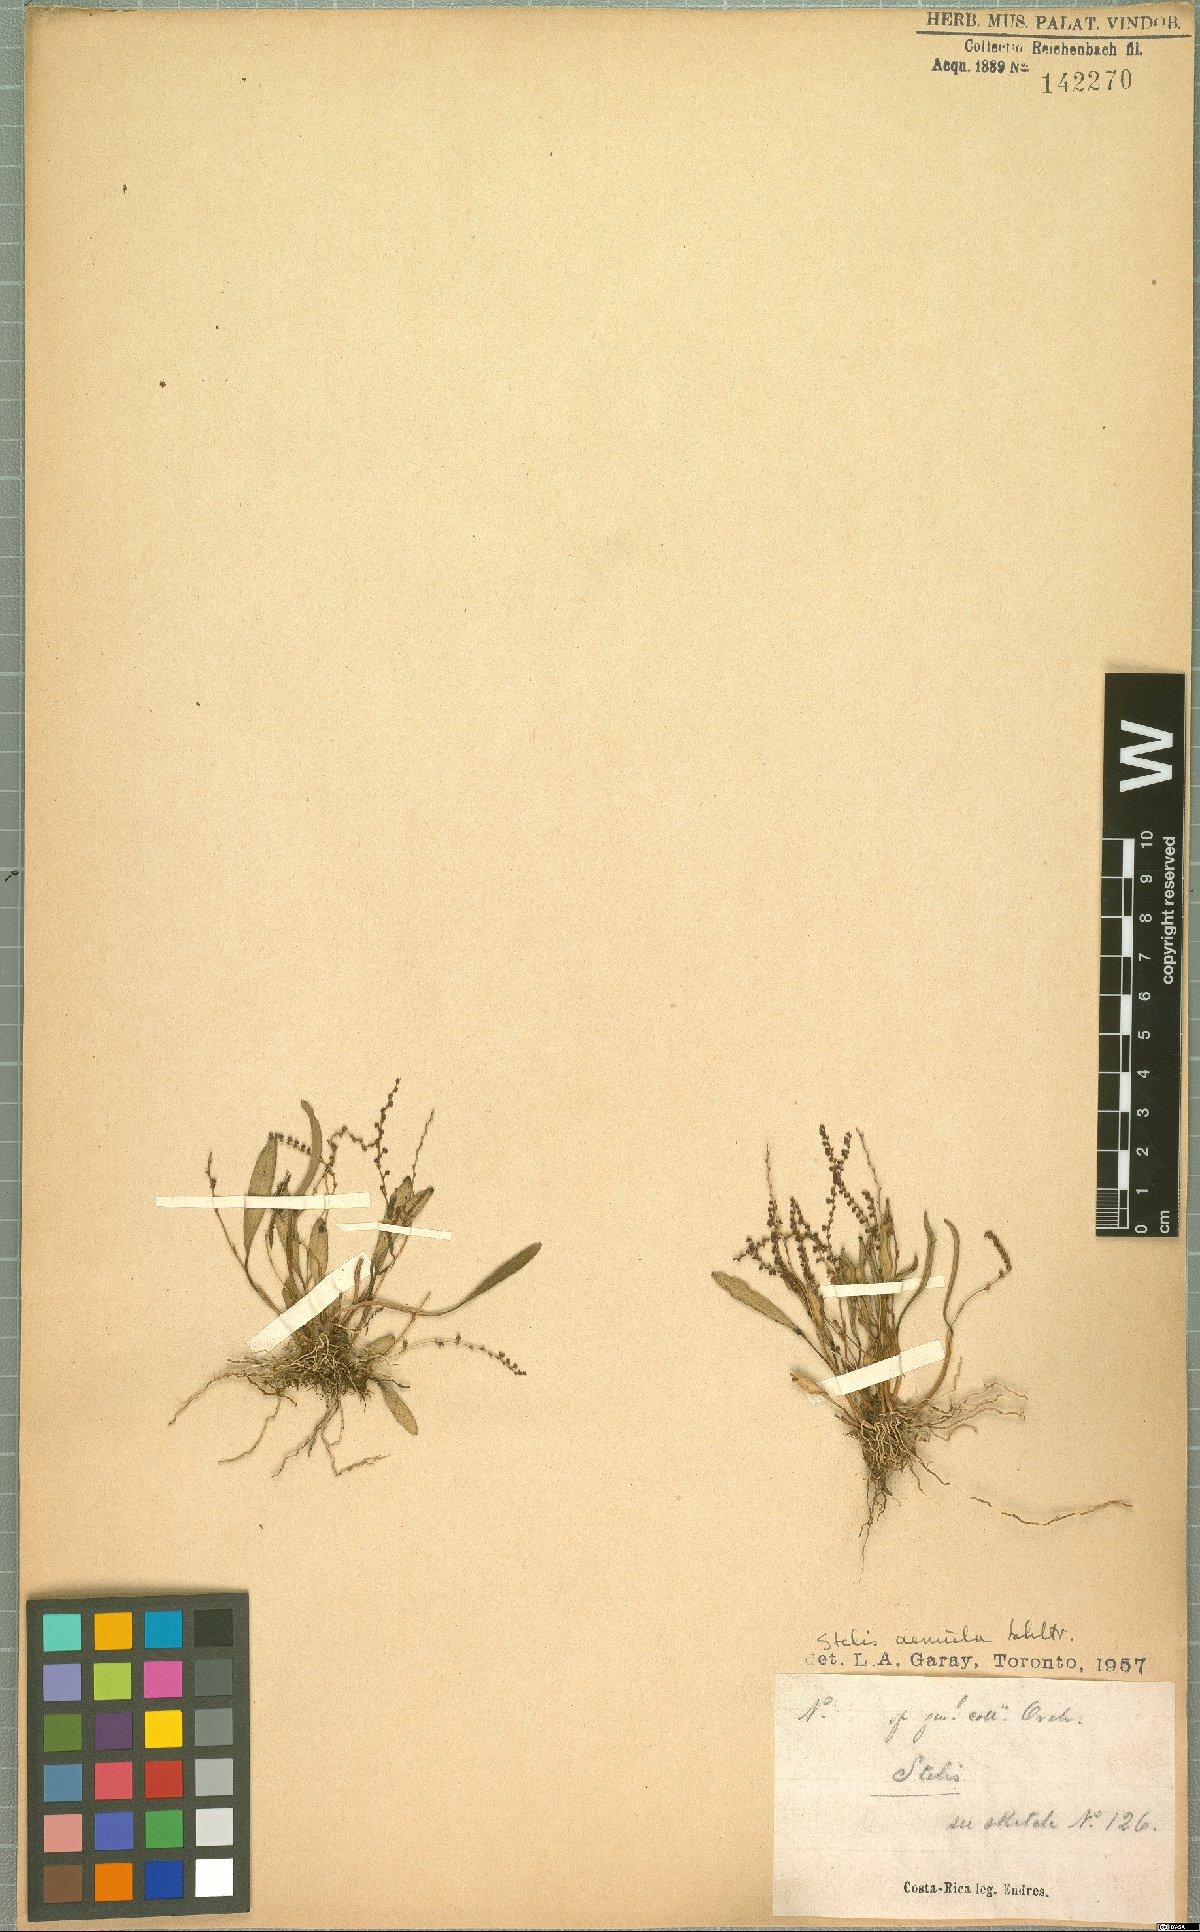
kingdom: Plantae
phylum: Tracheophyta
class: Liliopsida
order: Asparagales
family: Orchidaceae
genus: Stelis
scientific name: Stelis aemula
